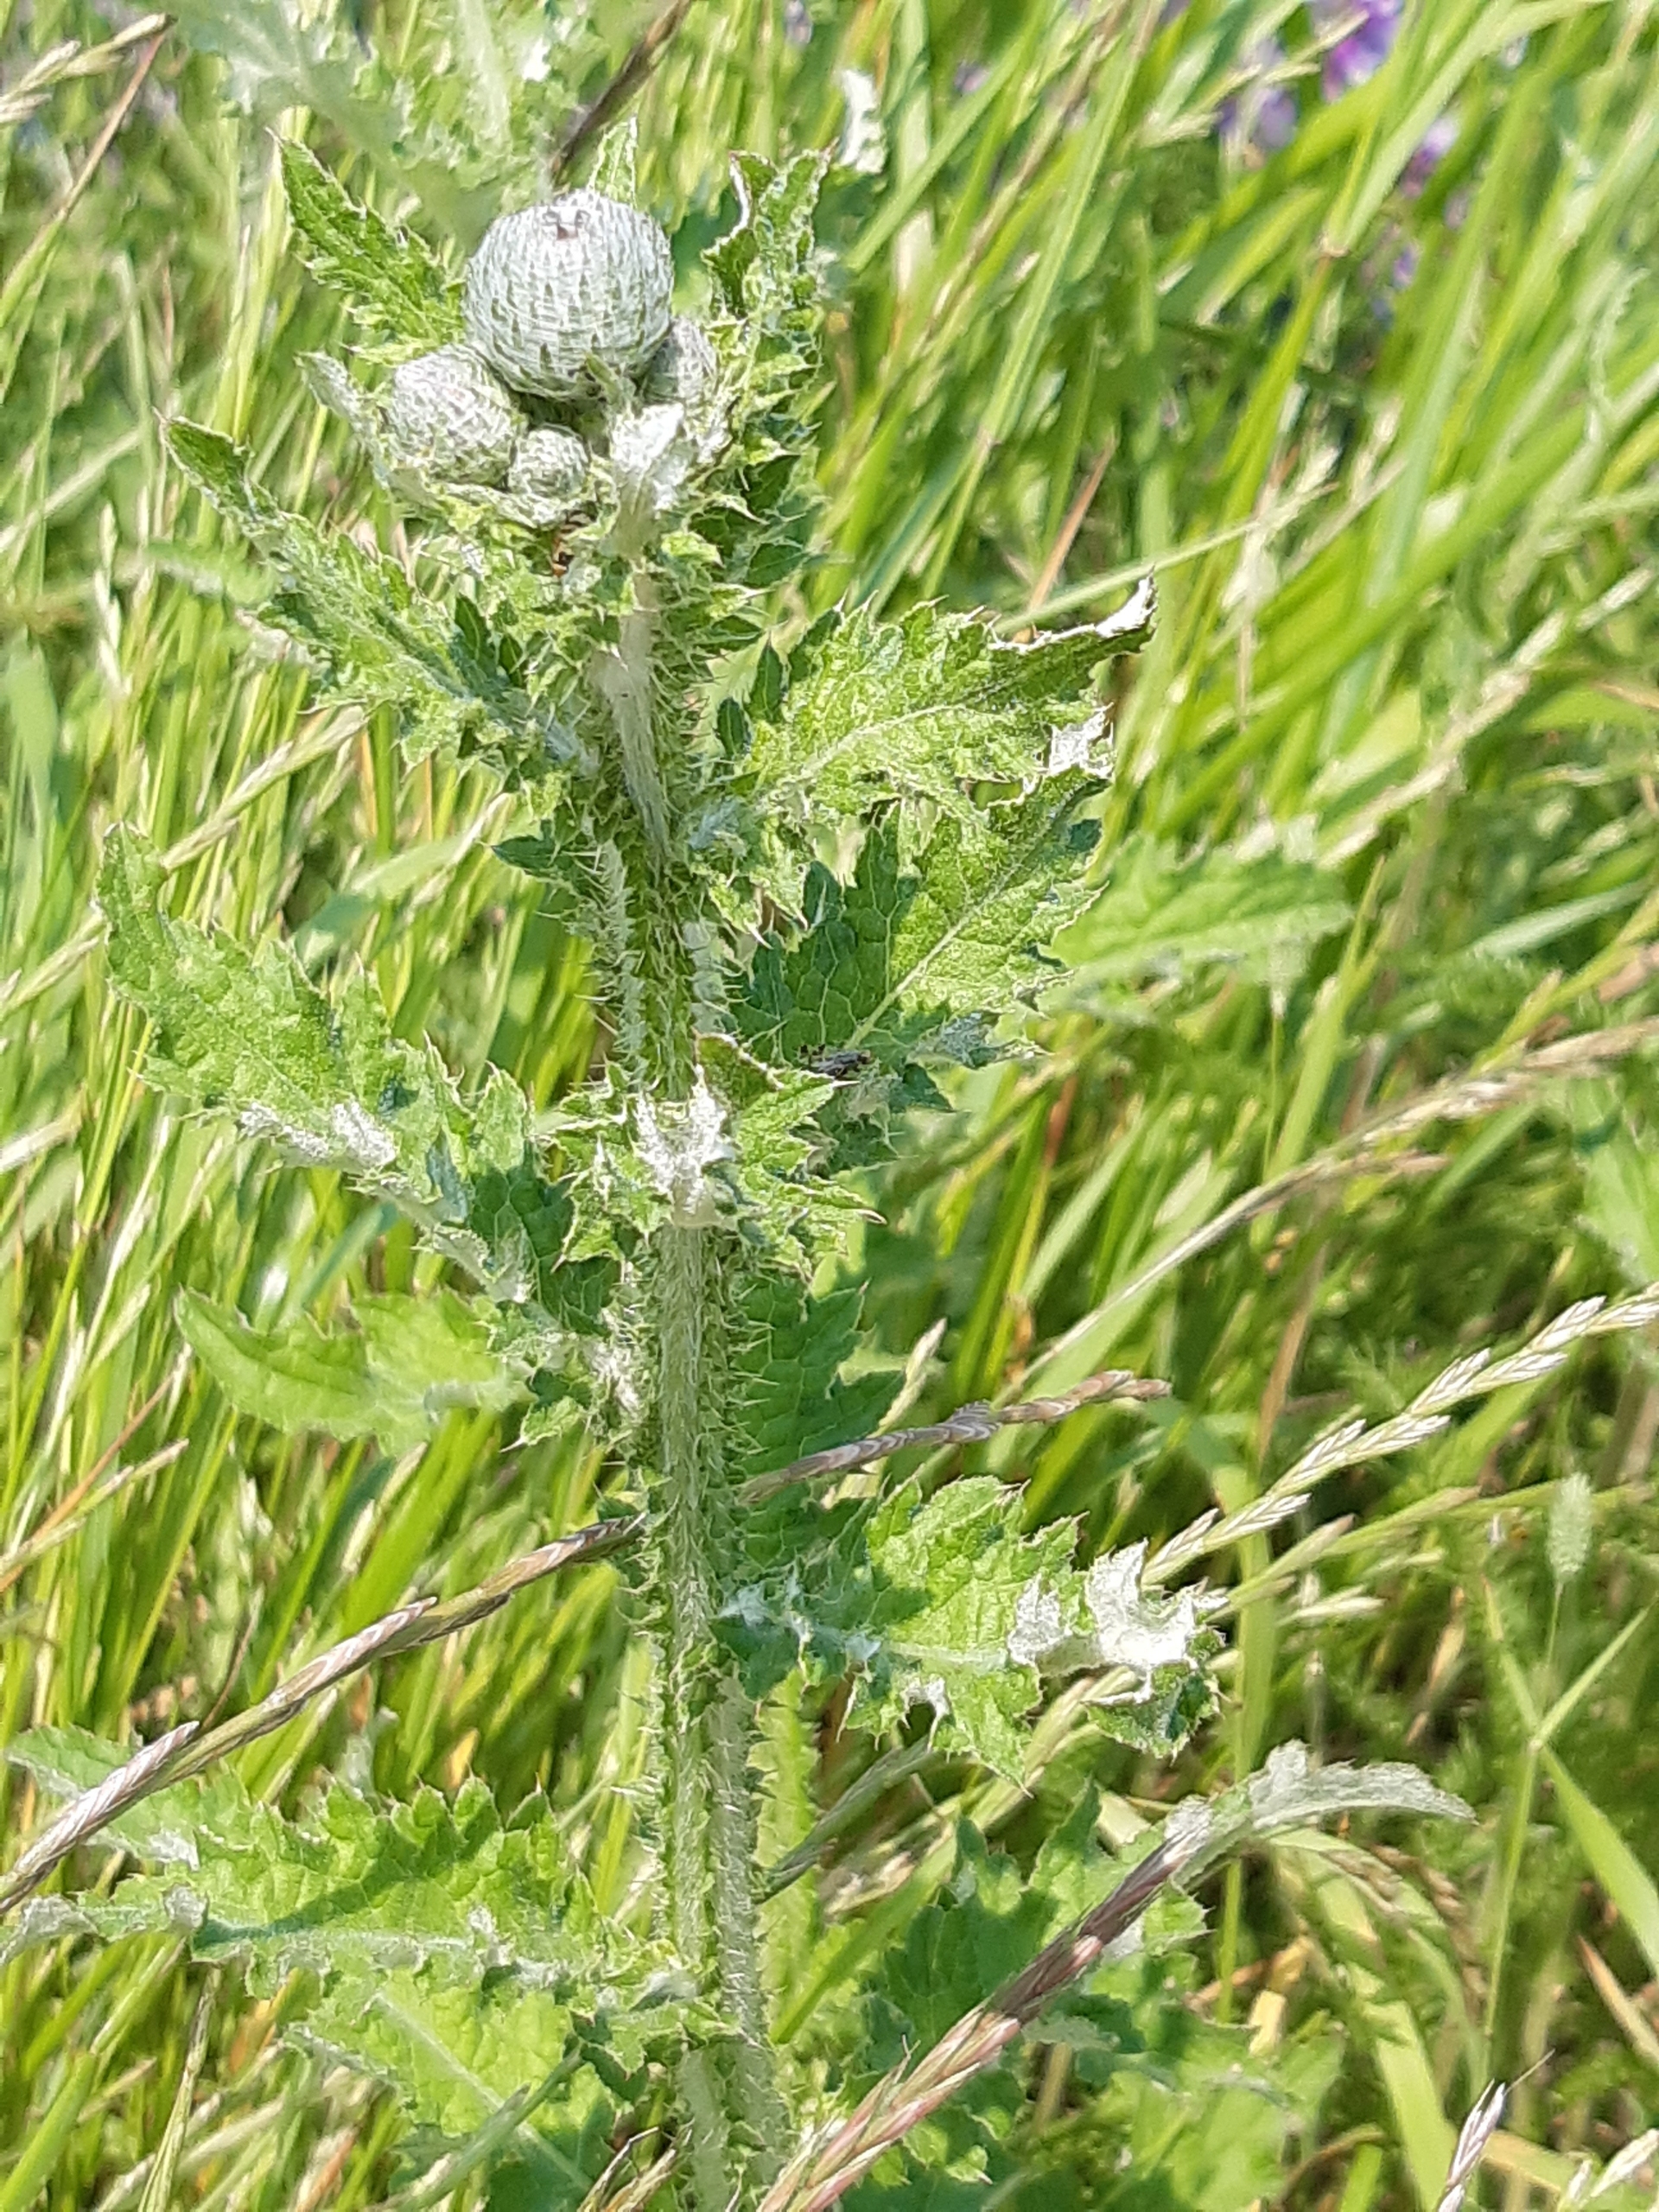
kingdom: Plantae
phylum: Tracheophyta
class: Magnoliopsida
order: Asterales
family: Asteraceae
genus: Carduus
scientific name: Carduus crispus
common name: Kruset tidsel
